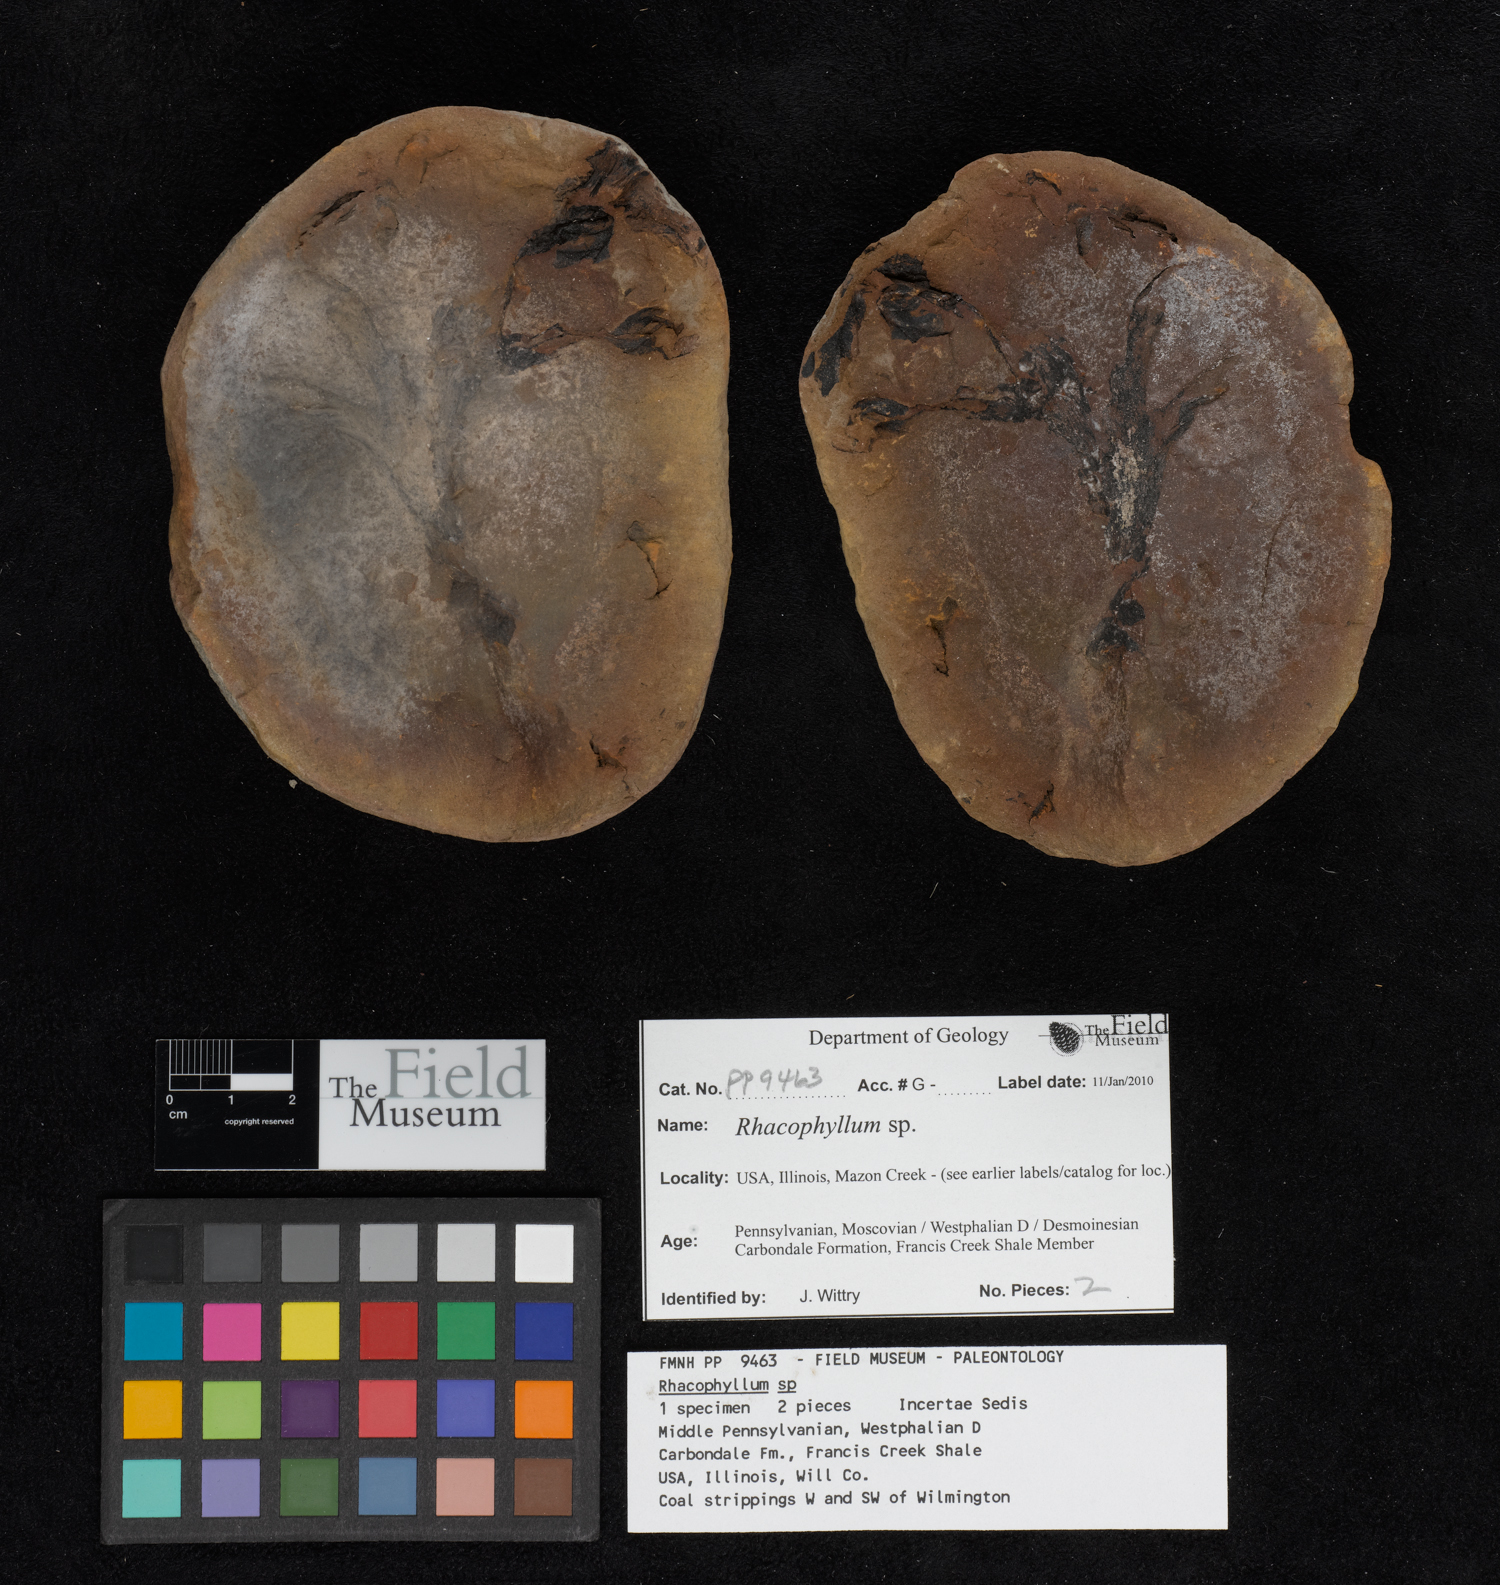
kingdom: Plantae
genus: Rhacophyllum
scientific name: Rhacophyllum
